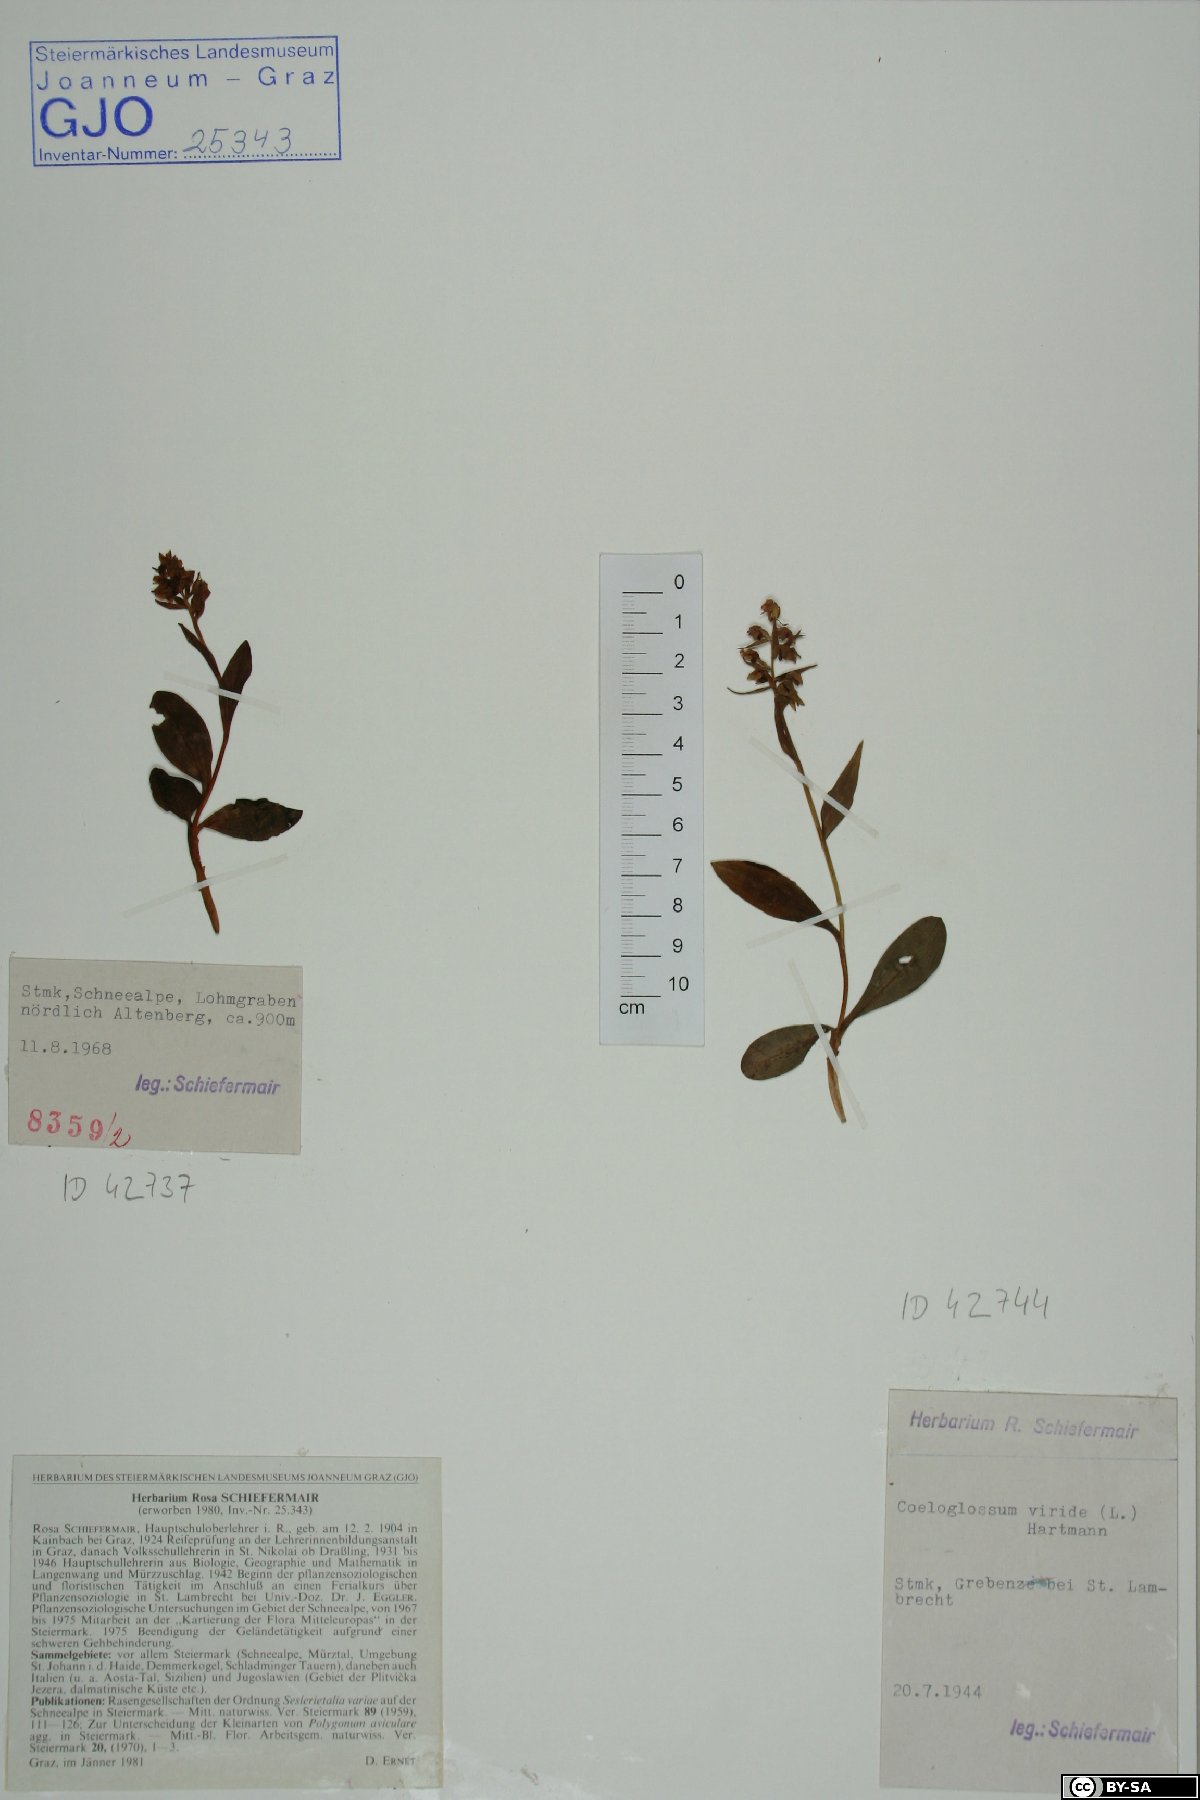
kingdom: Plantae
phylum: Tracheophyta
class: Liliopsida
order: Asparagales
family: Orchidaceae
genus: Dactylorhiza
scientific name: Dactylorhiza viridis
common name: Longbract frog orchid
